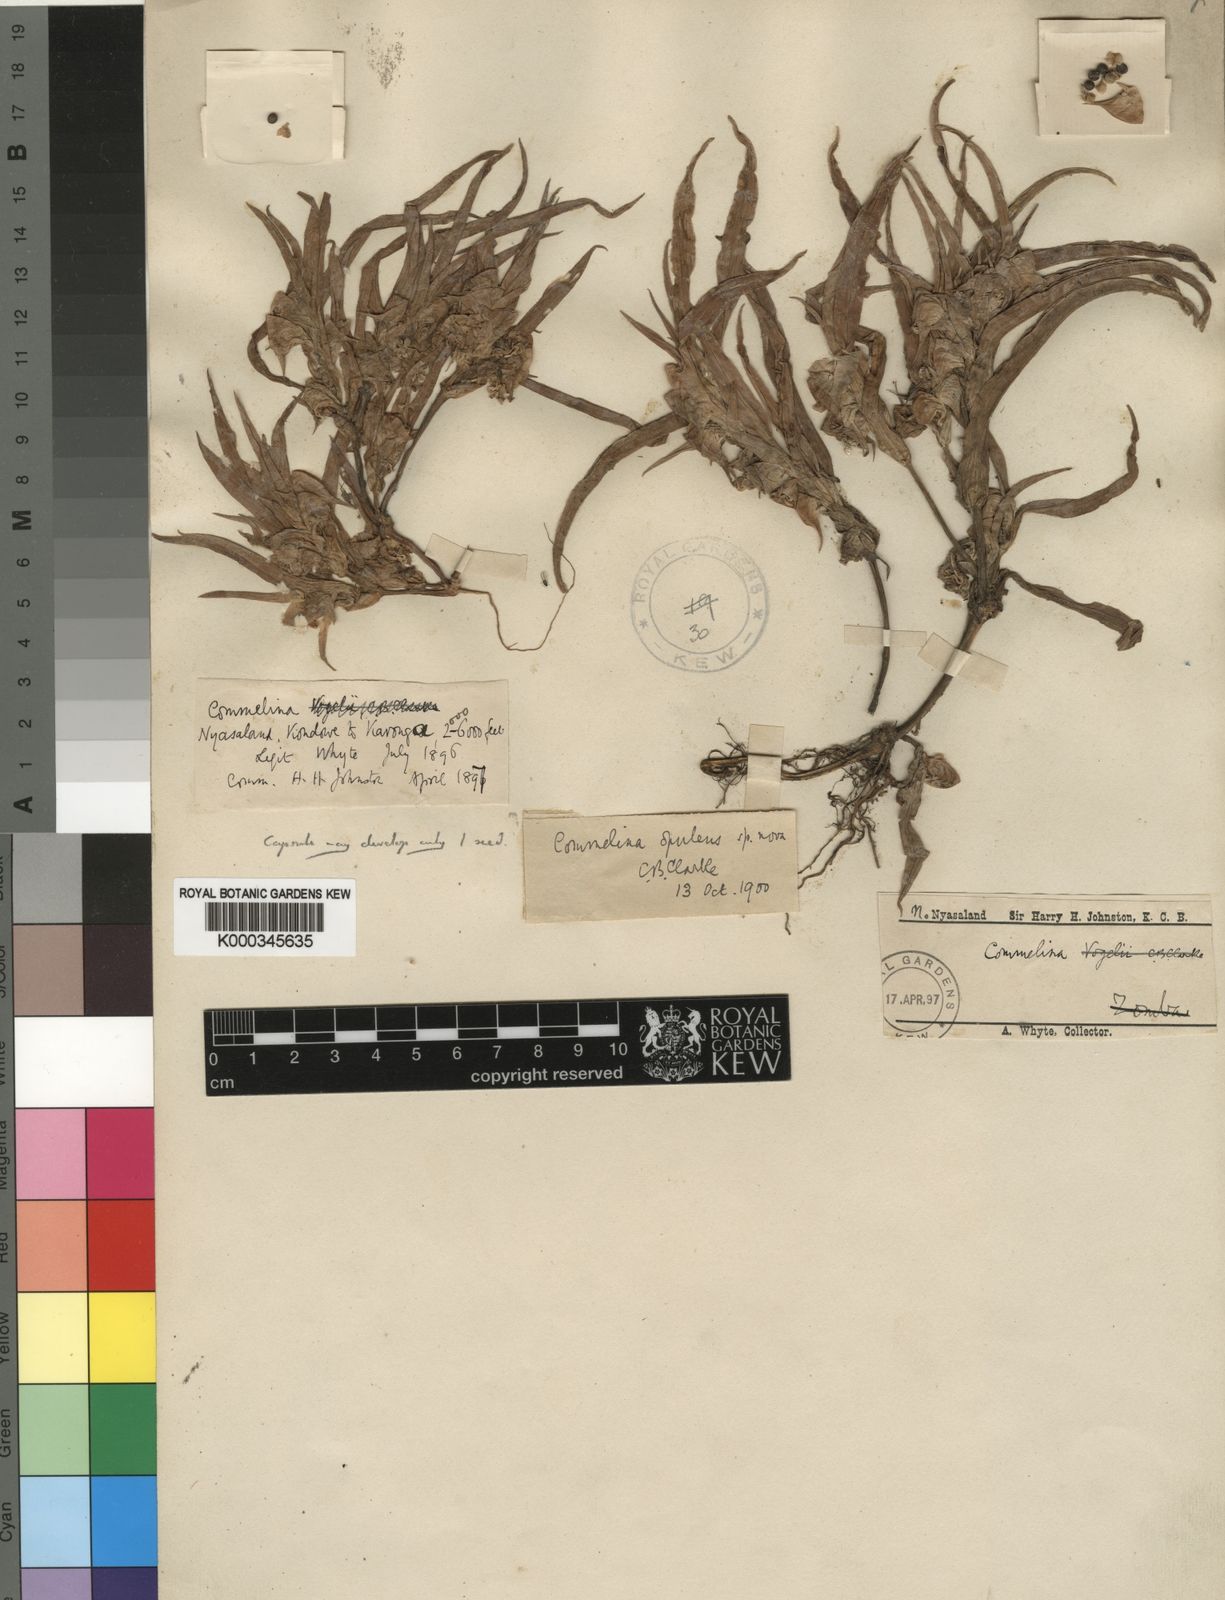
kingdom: Plantae
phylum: Tracheophyta
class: Liliopsida
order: Commelinales
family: Commelinaceae
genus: Commelina
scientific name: Commelina aspera
